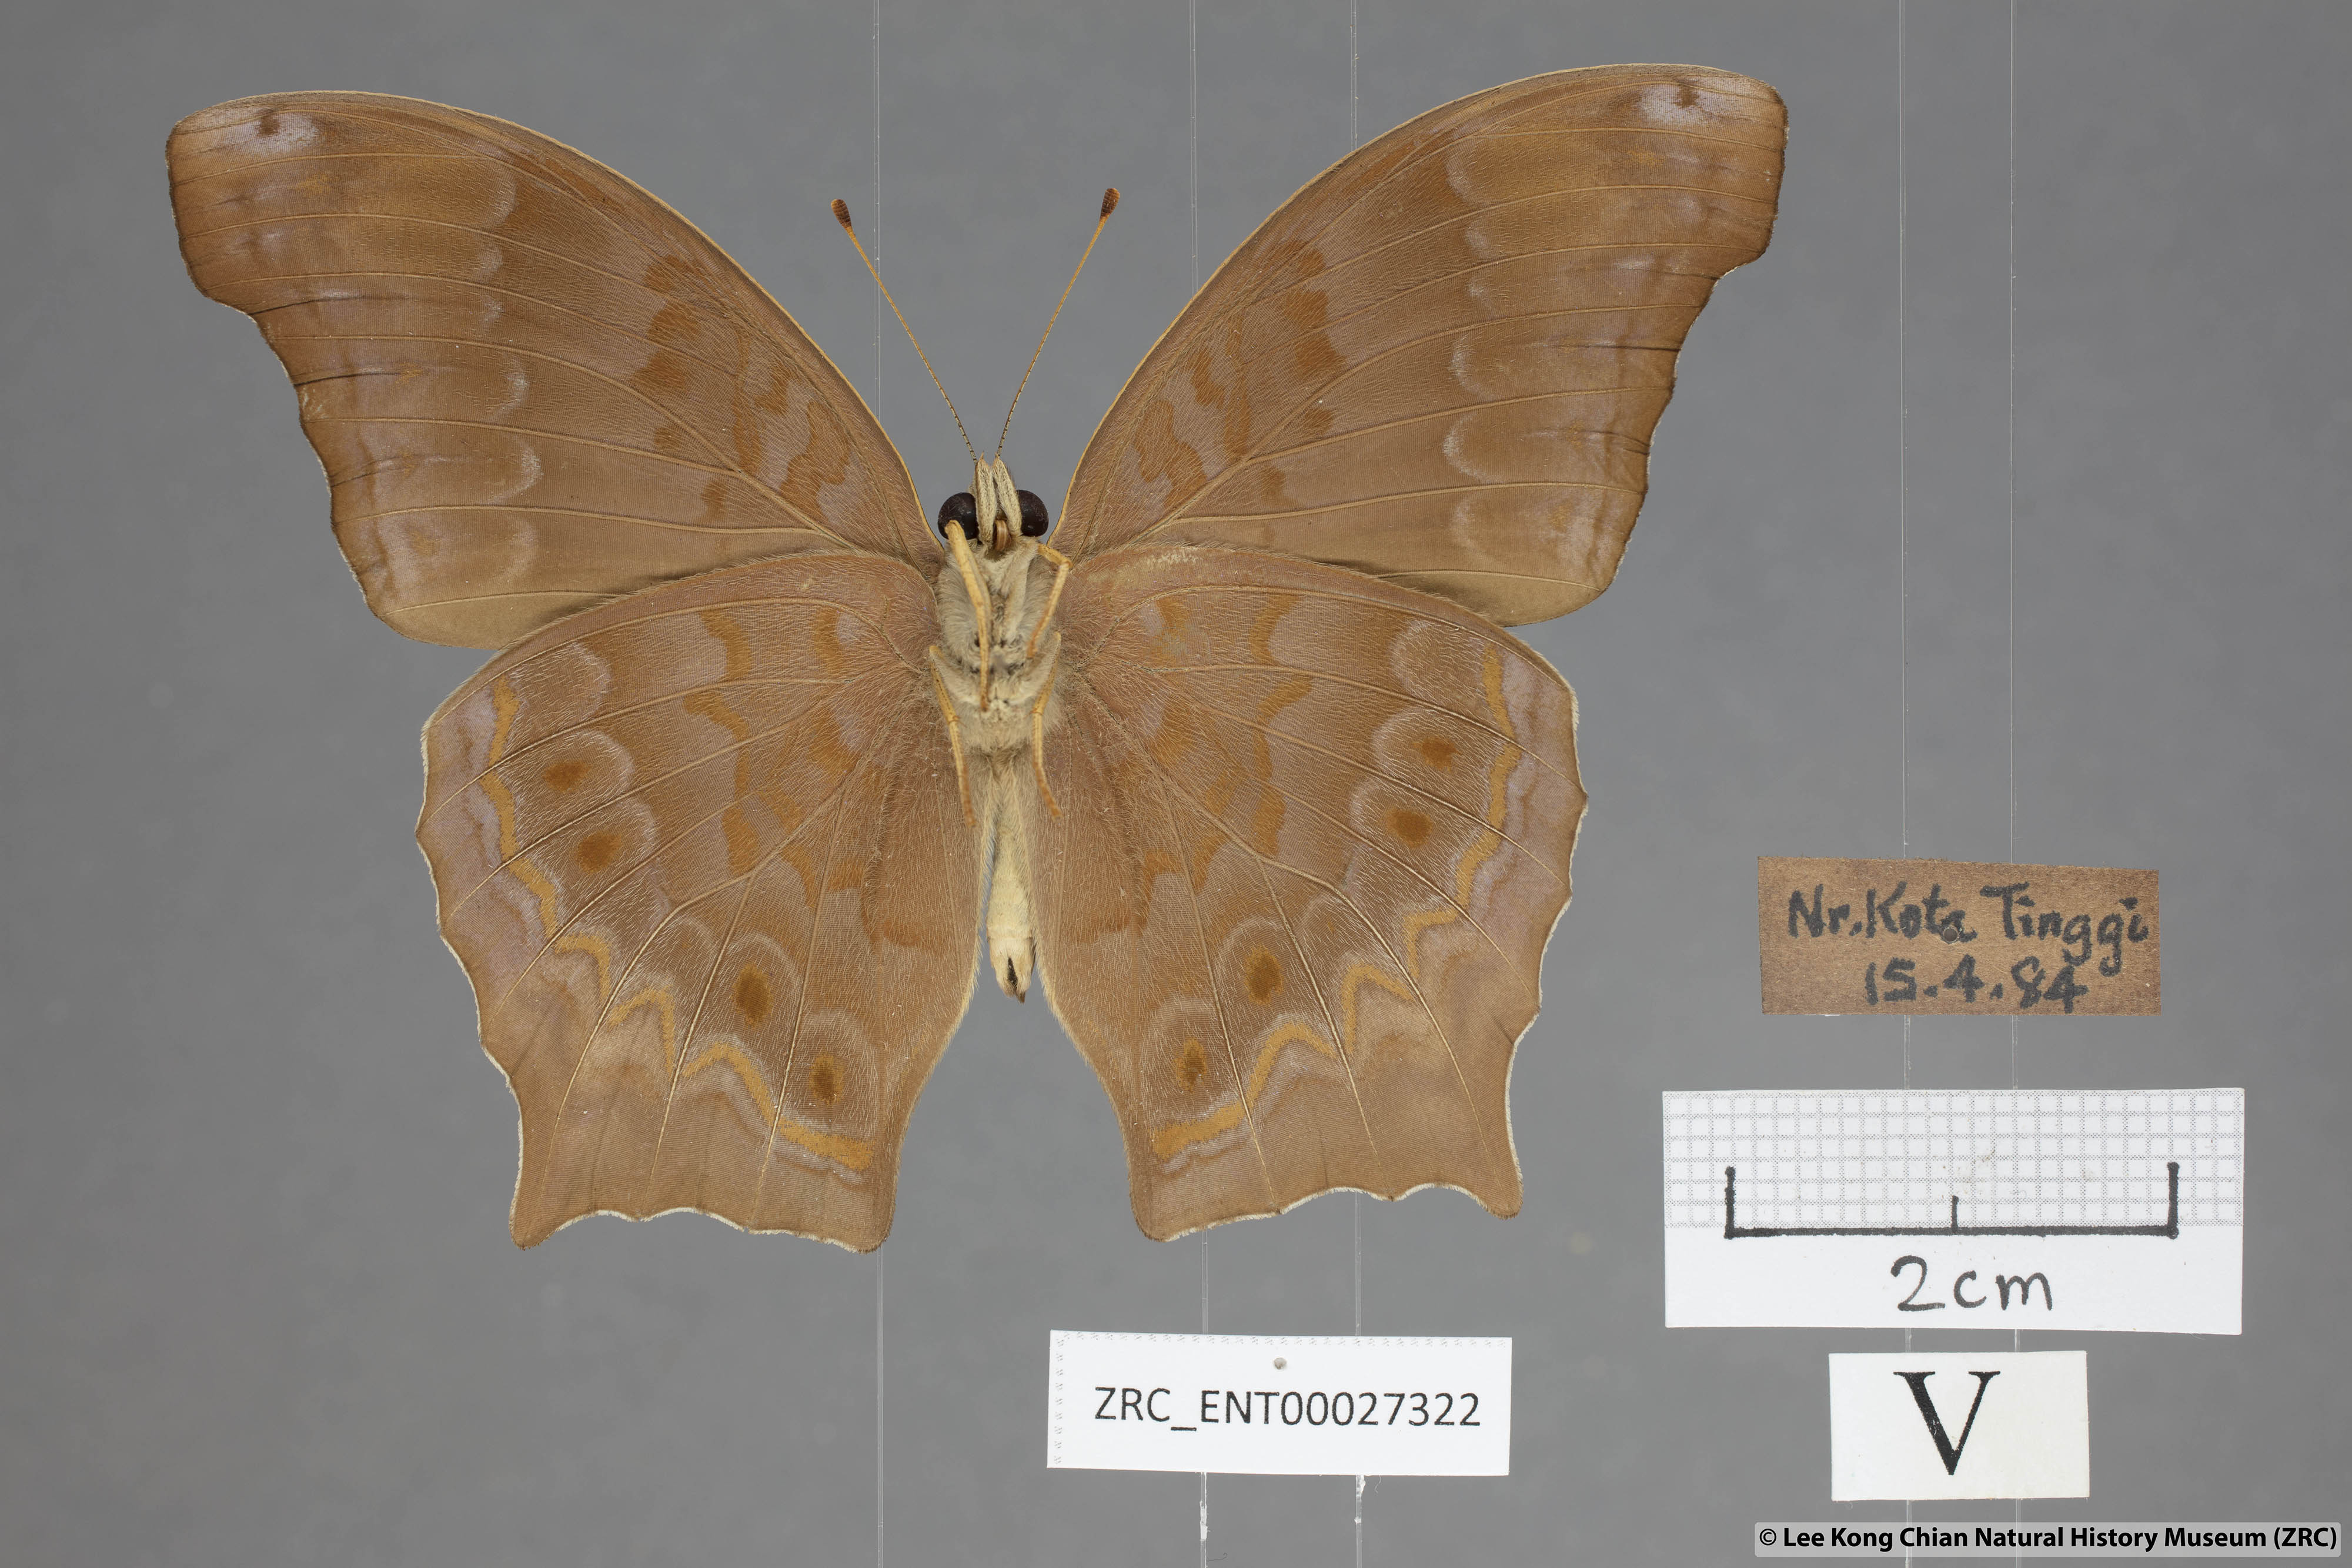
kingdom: Animalia
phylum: Arthropoda
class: Insecta
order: Lepidoptera
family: Nymphalidae
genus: Terinos
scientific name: Terinos atlita
